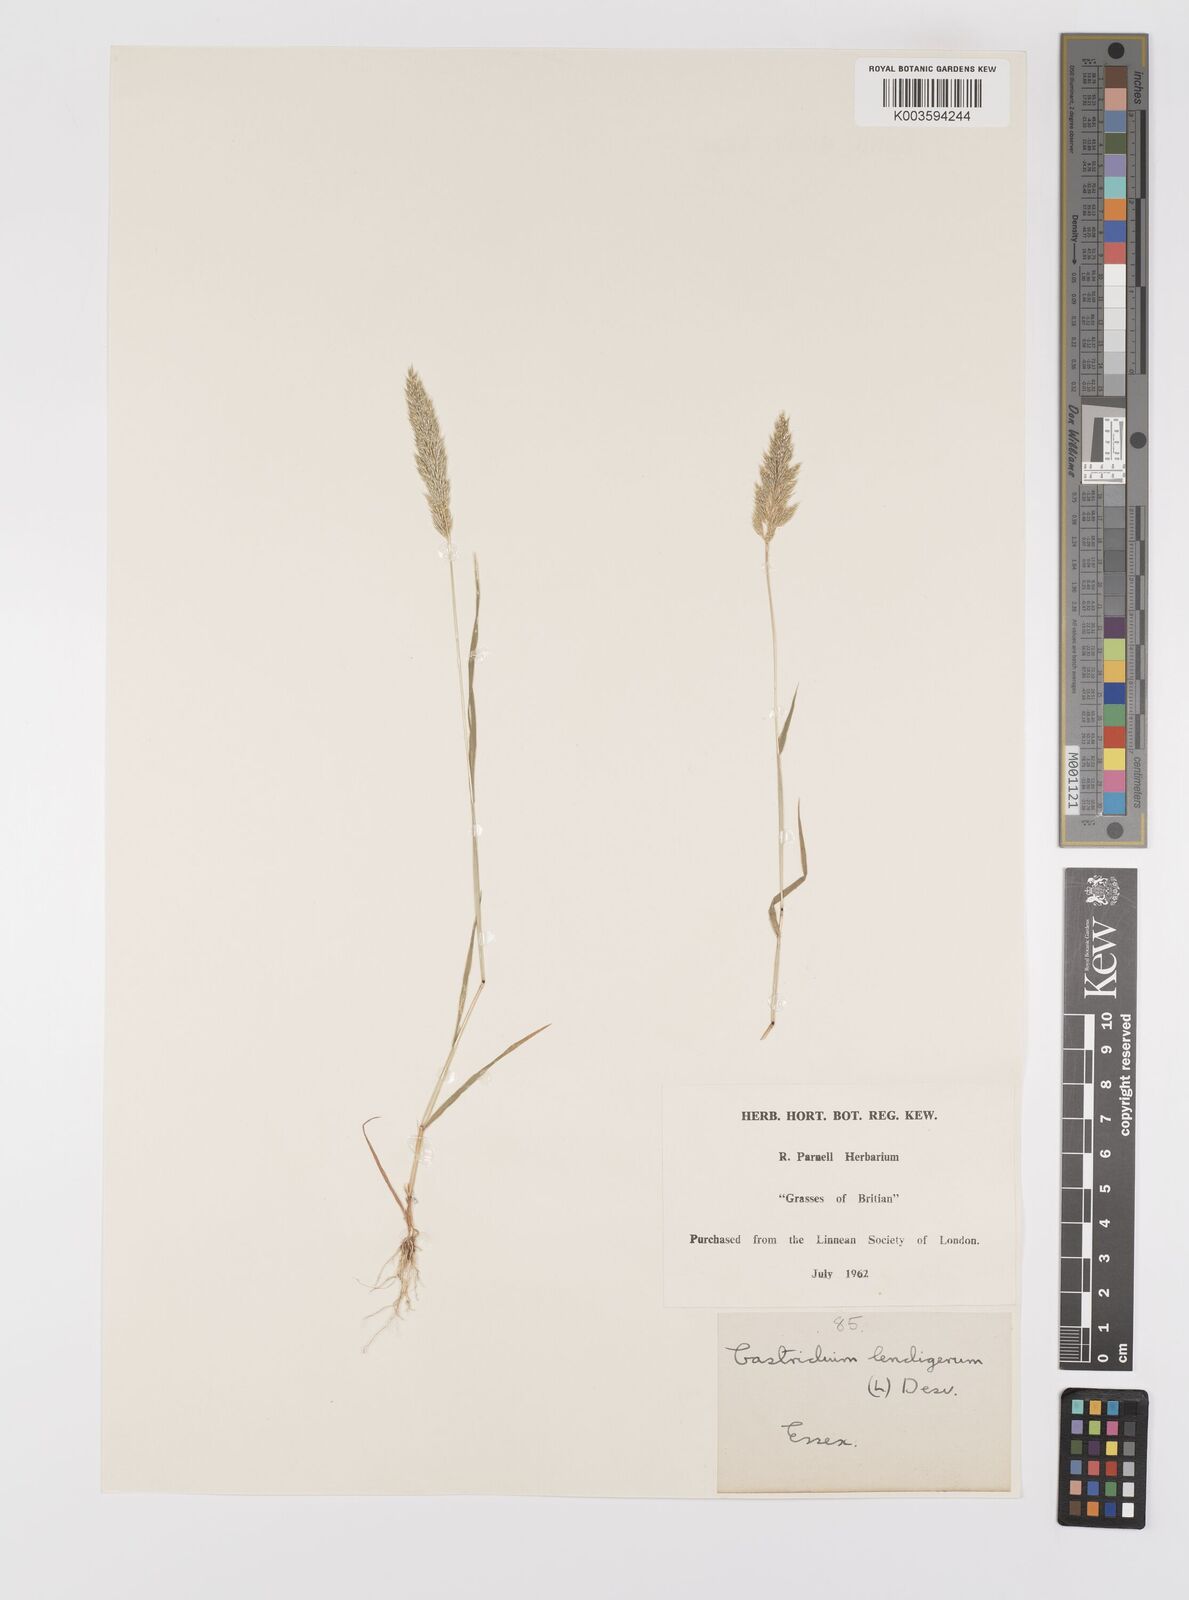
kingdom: Plantae
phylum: Tracheophyta
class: Liliopsida
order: Poales
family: Poaceae
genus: Gastridium
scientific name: Gastridium ventricosum
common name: Nit-grass
